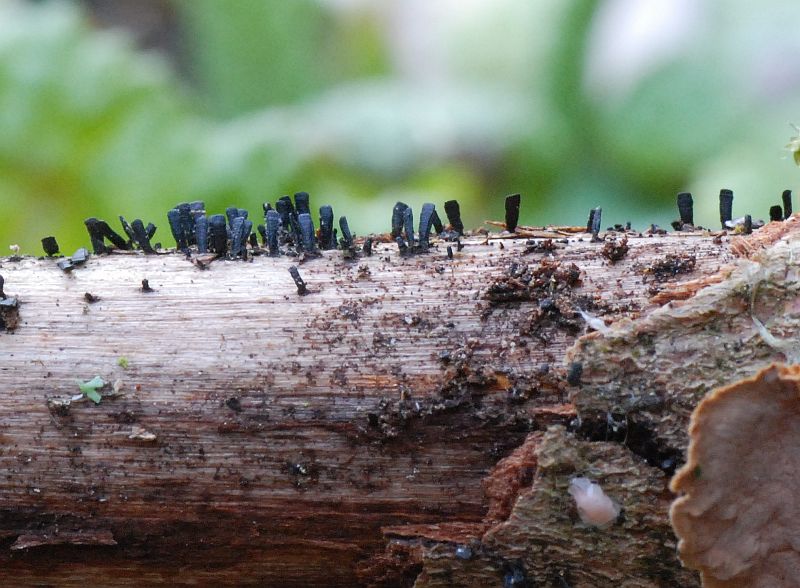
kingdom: Fungi
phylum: Ascomycota
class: Eurotiomycetes
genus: Glyphium
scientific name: Glyphium elatum
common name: kuløkse
